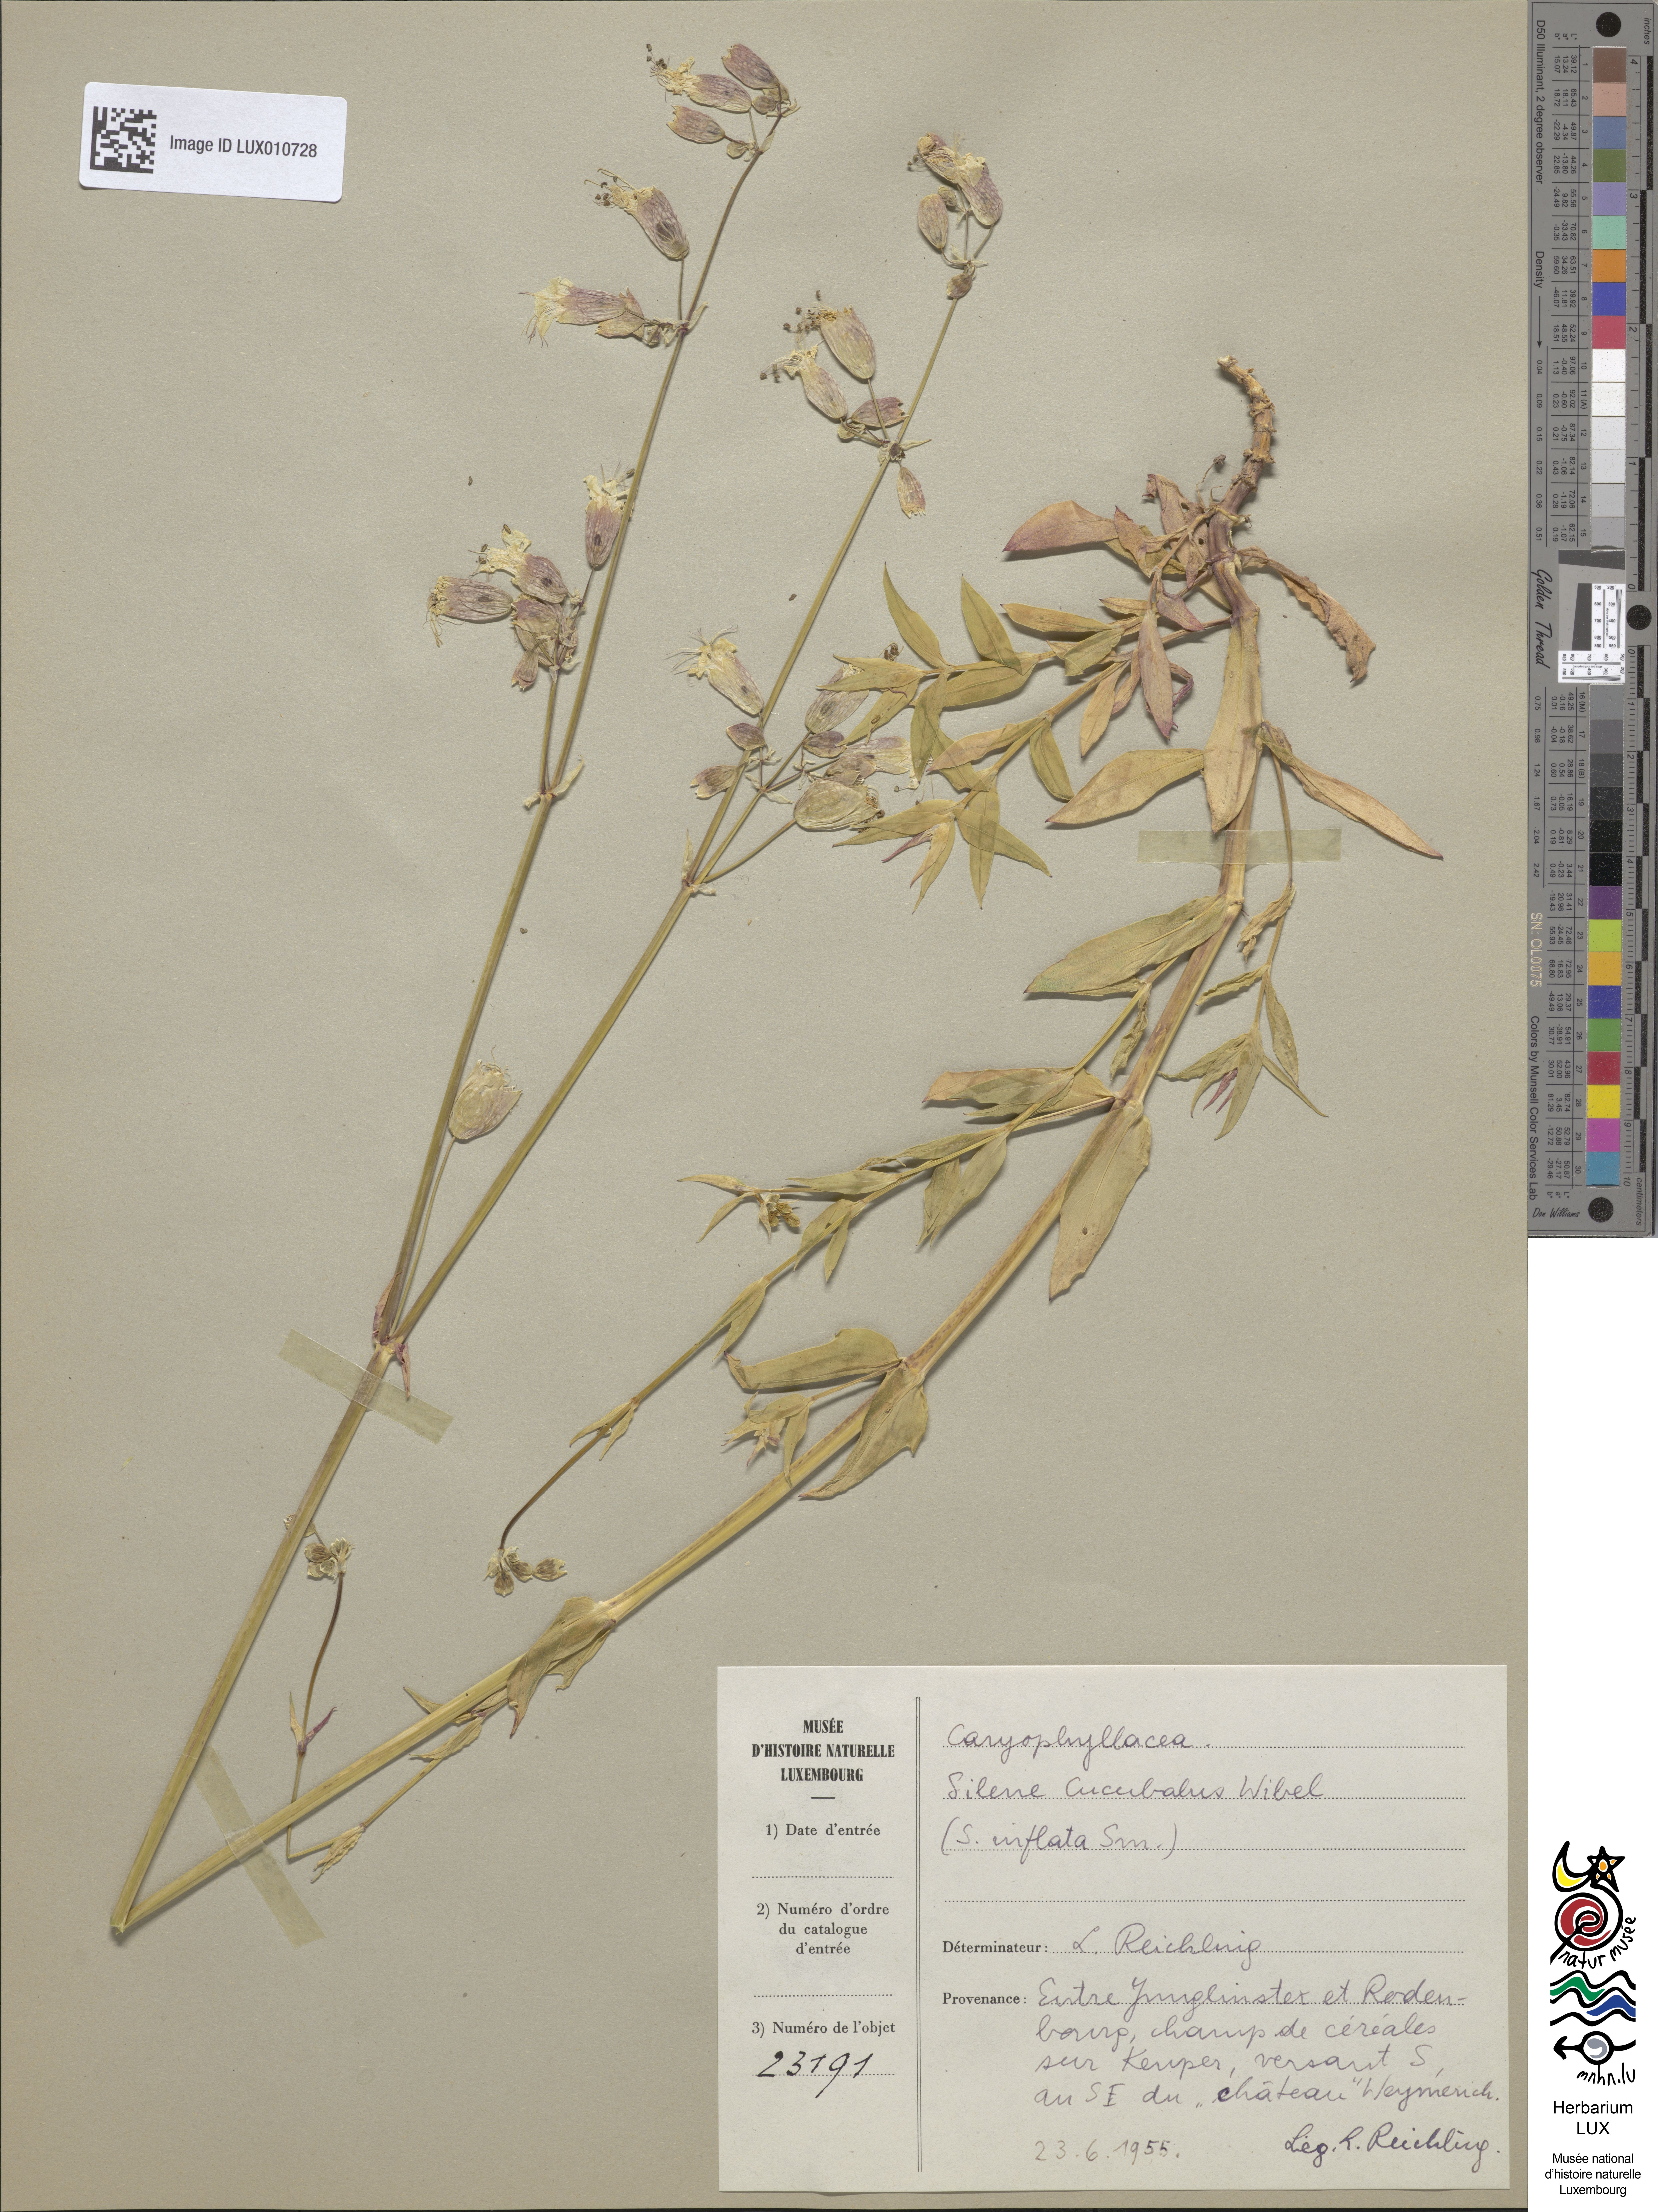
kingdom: Plantae
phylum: Tracheophyta
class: Magnoliopsida
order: Caryophyllales
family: Caryophyllaceae
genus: Silene
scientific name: Silene vulgaris
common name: Bladder campion
